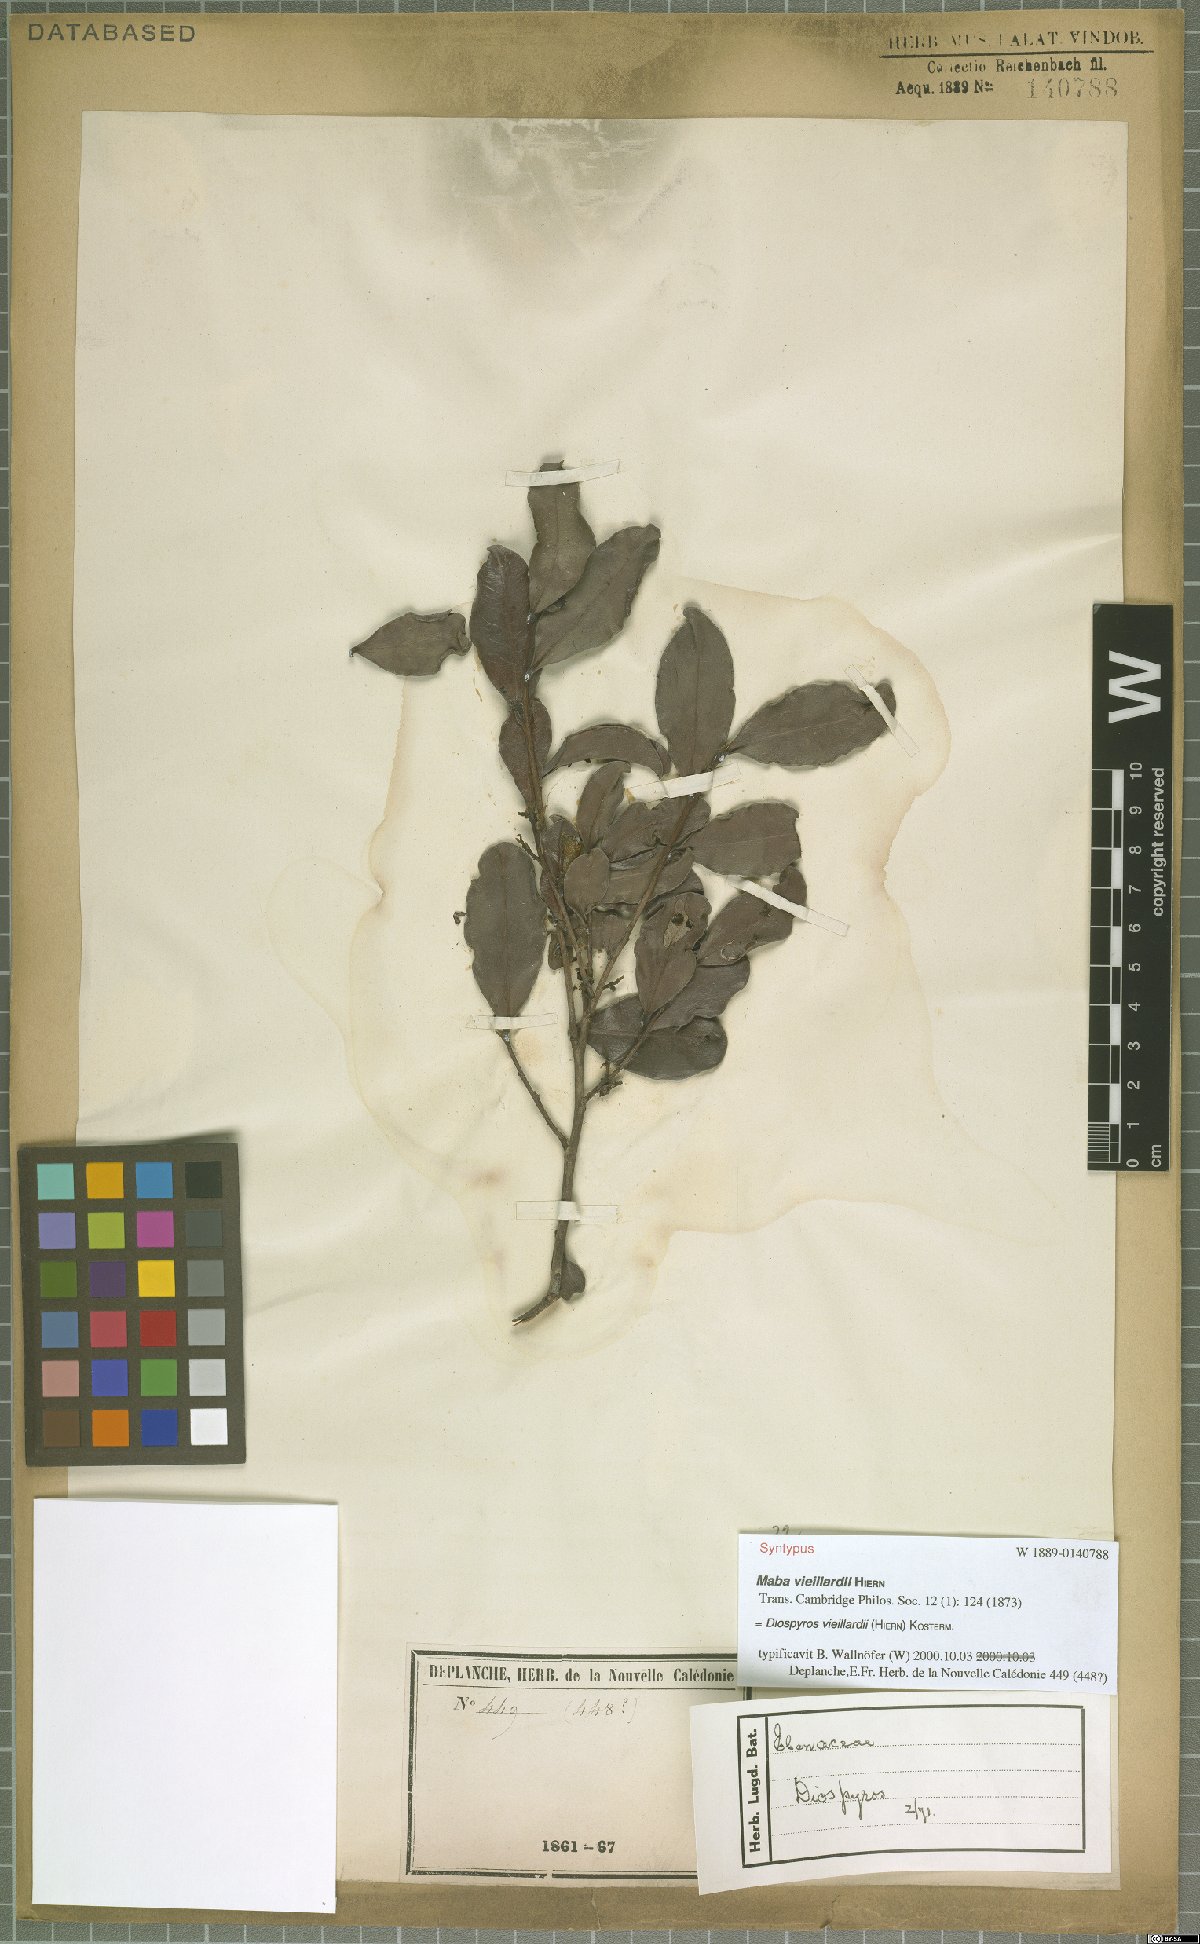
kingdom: Plantae
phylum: Tracheophyta
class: Magnoliopsida
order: Ericales
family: Ebenaceae
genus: Diospyros
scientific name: Diospyros vieillardii
